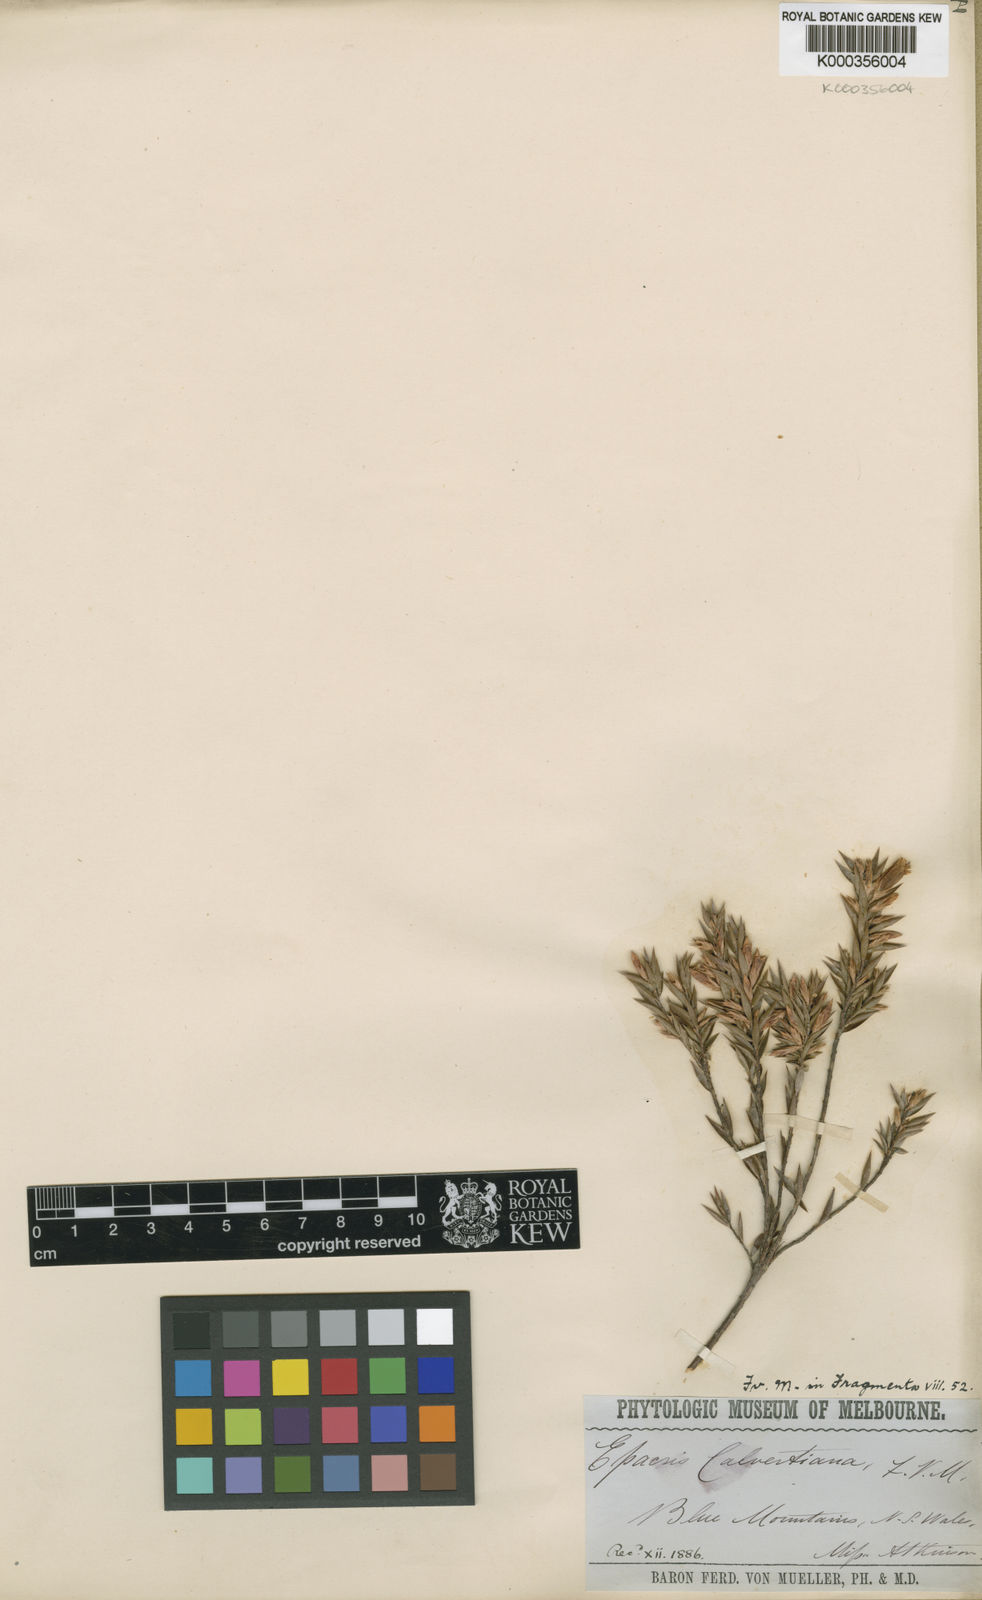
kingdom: Plantae
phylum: Tracheophyta
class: Magnoliopsida
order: Ericales
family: Ericaceae
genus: Epacris
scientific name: Epacris calvertiana
